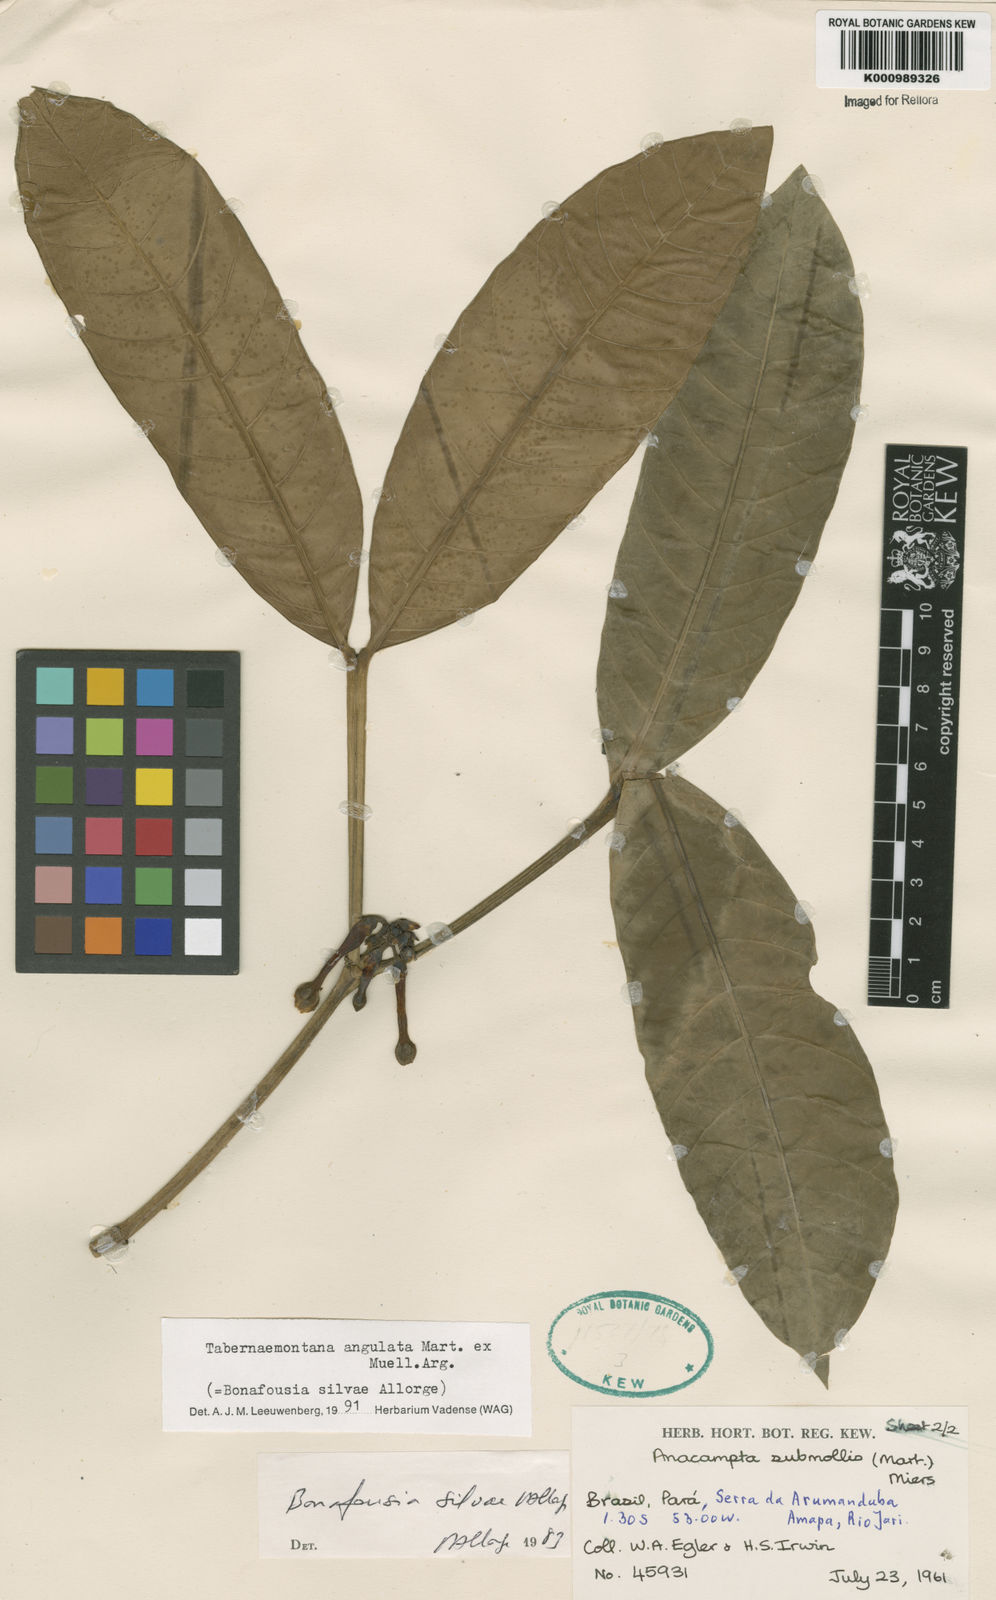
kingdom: Plantae
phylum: Tracheophyta
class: Magnoliopsida
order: Gentianales
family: Apocynaceae
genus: Tabernaemontana
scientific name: Tabernaemontana
